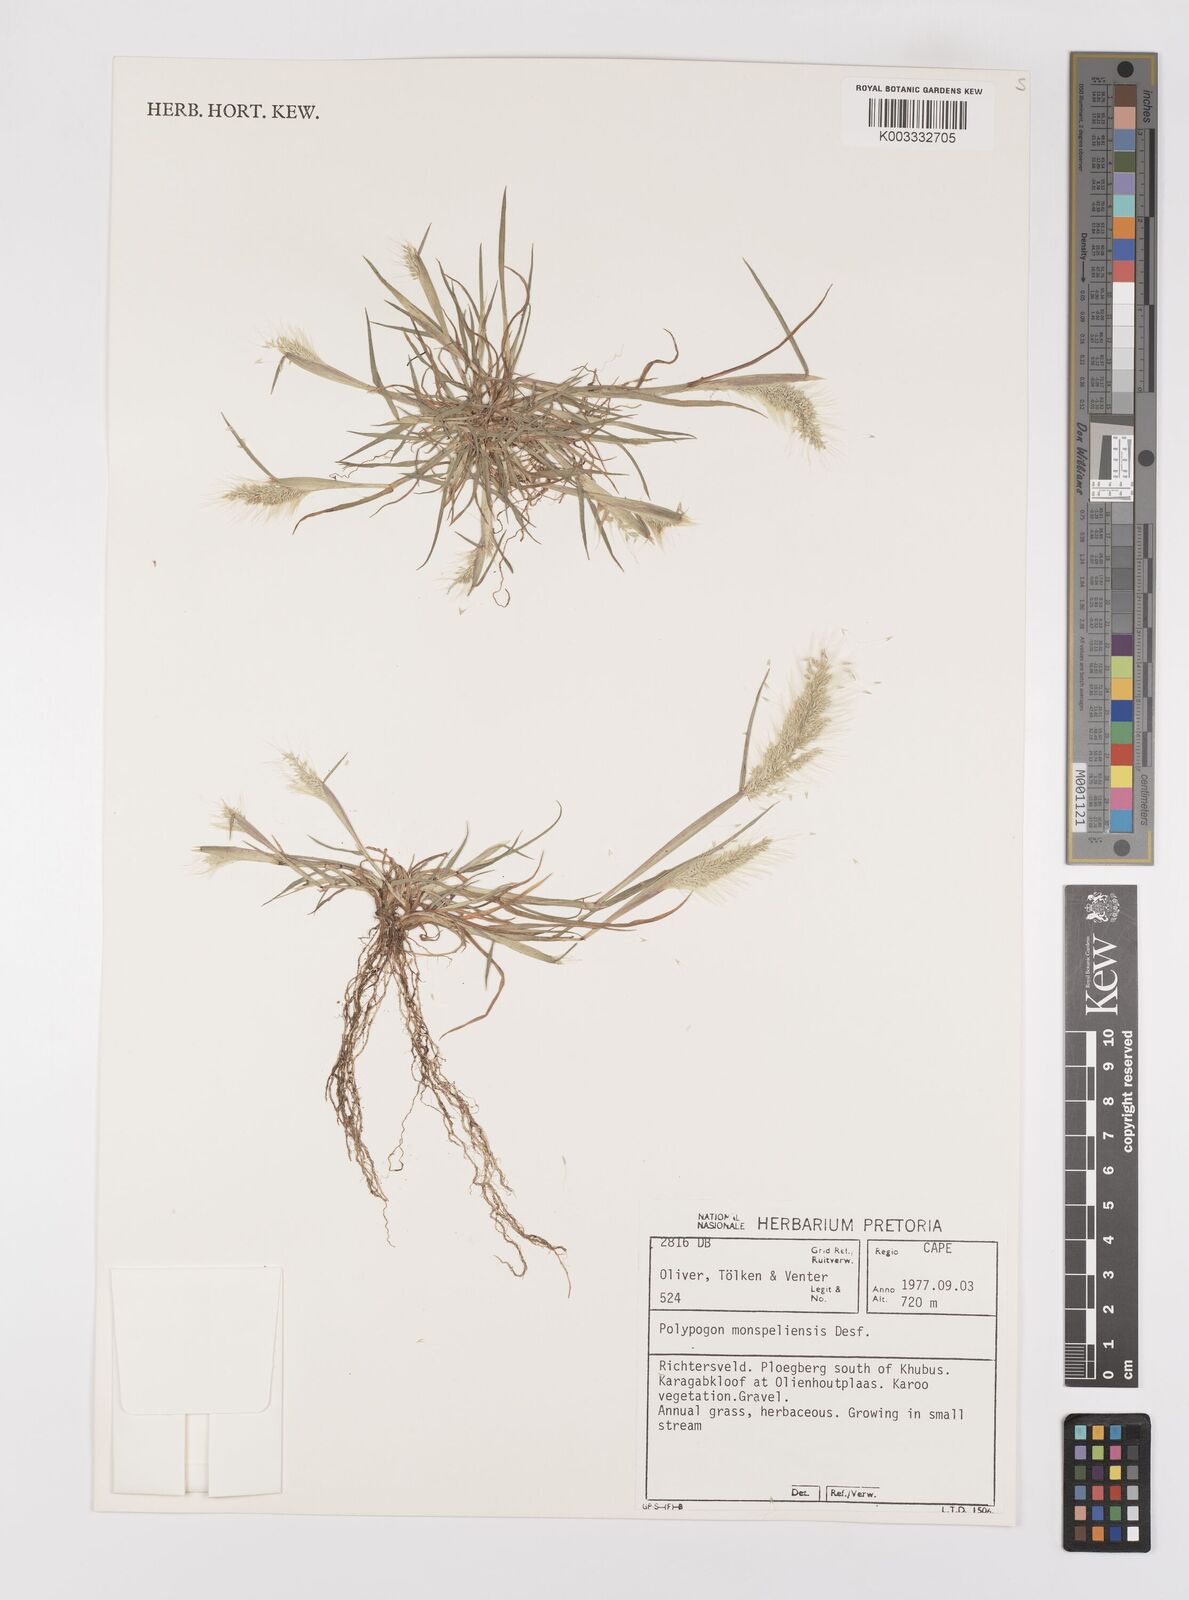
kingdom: Plantae
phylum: Tracheophyta
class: Liliopsida
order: Poales
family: Poaceae
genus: Polypogon
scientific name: Polypogon monspeliensis
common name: Annual rabbitsfoot grass
